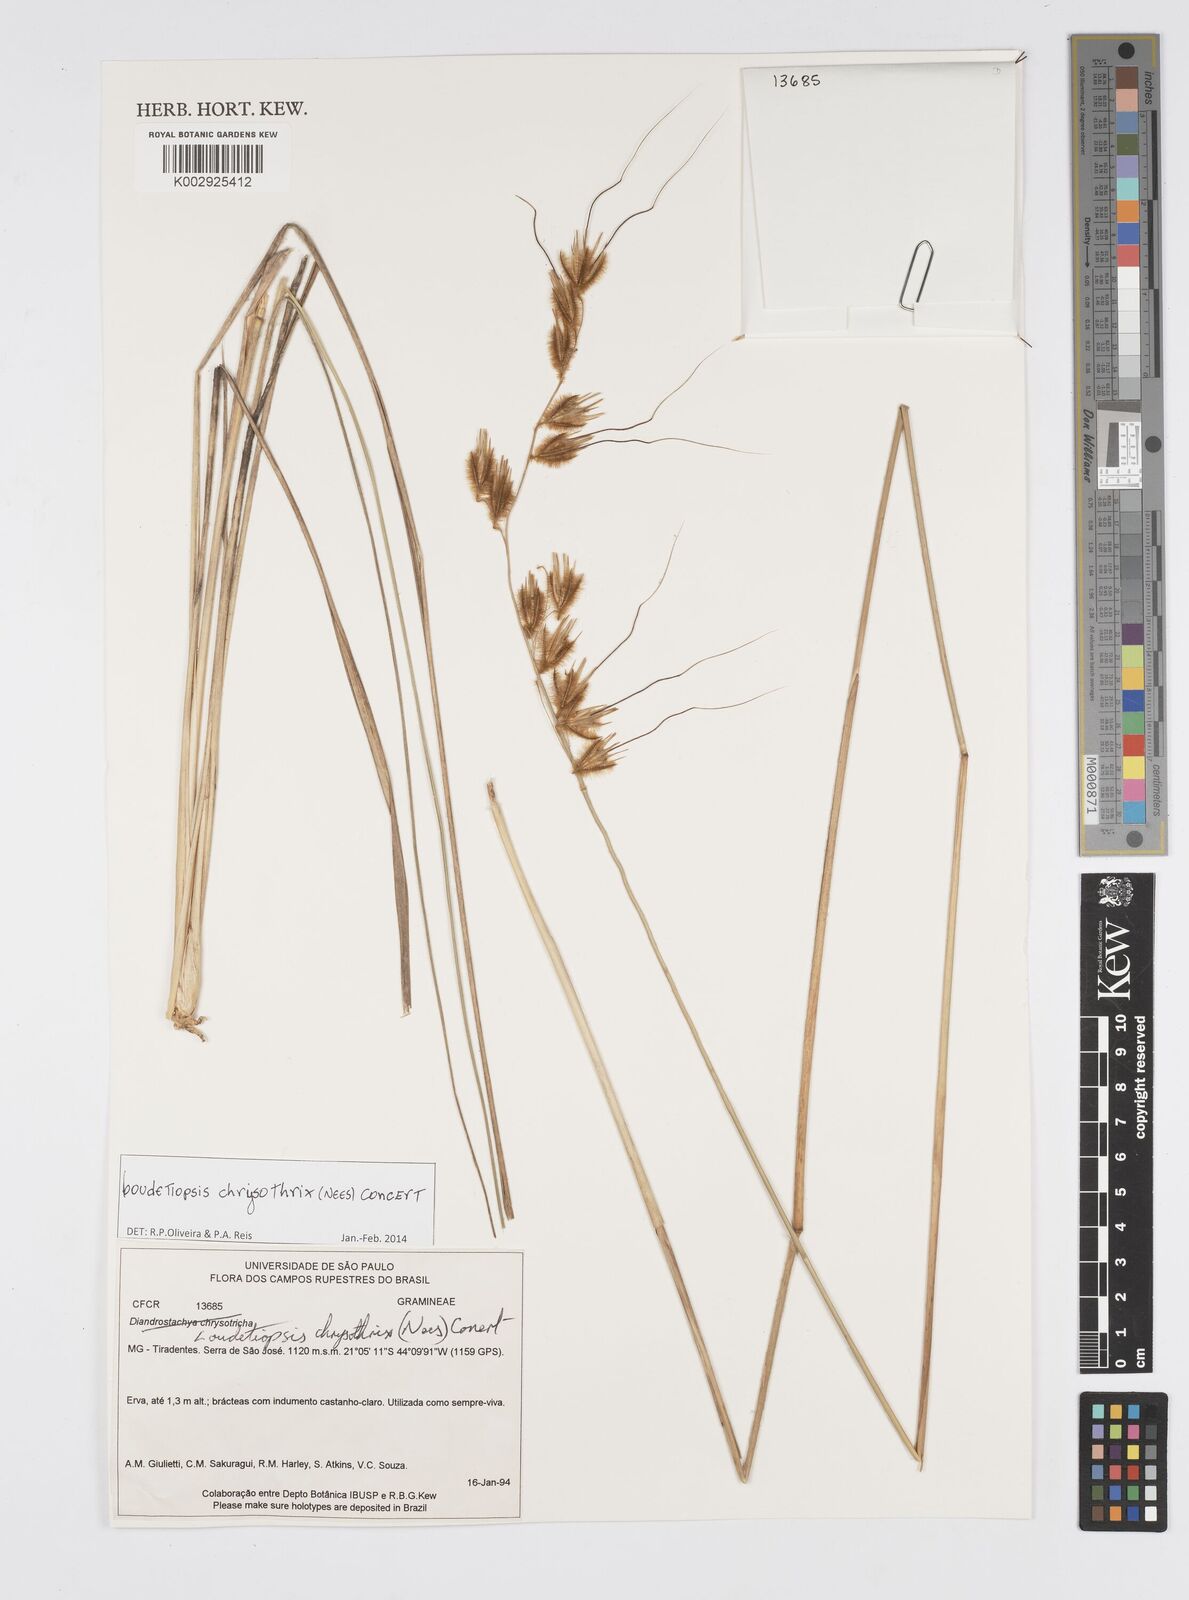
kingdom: Plantae
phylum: Tracheophyta
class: Liliopsida
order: Poales
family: Poaceae
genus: Loudetiopsis
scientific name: Loudetiopsis chrysothrix
